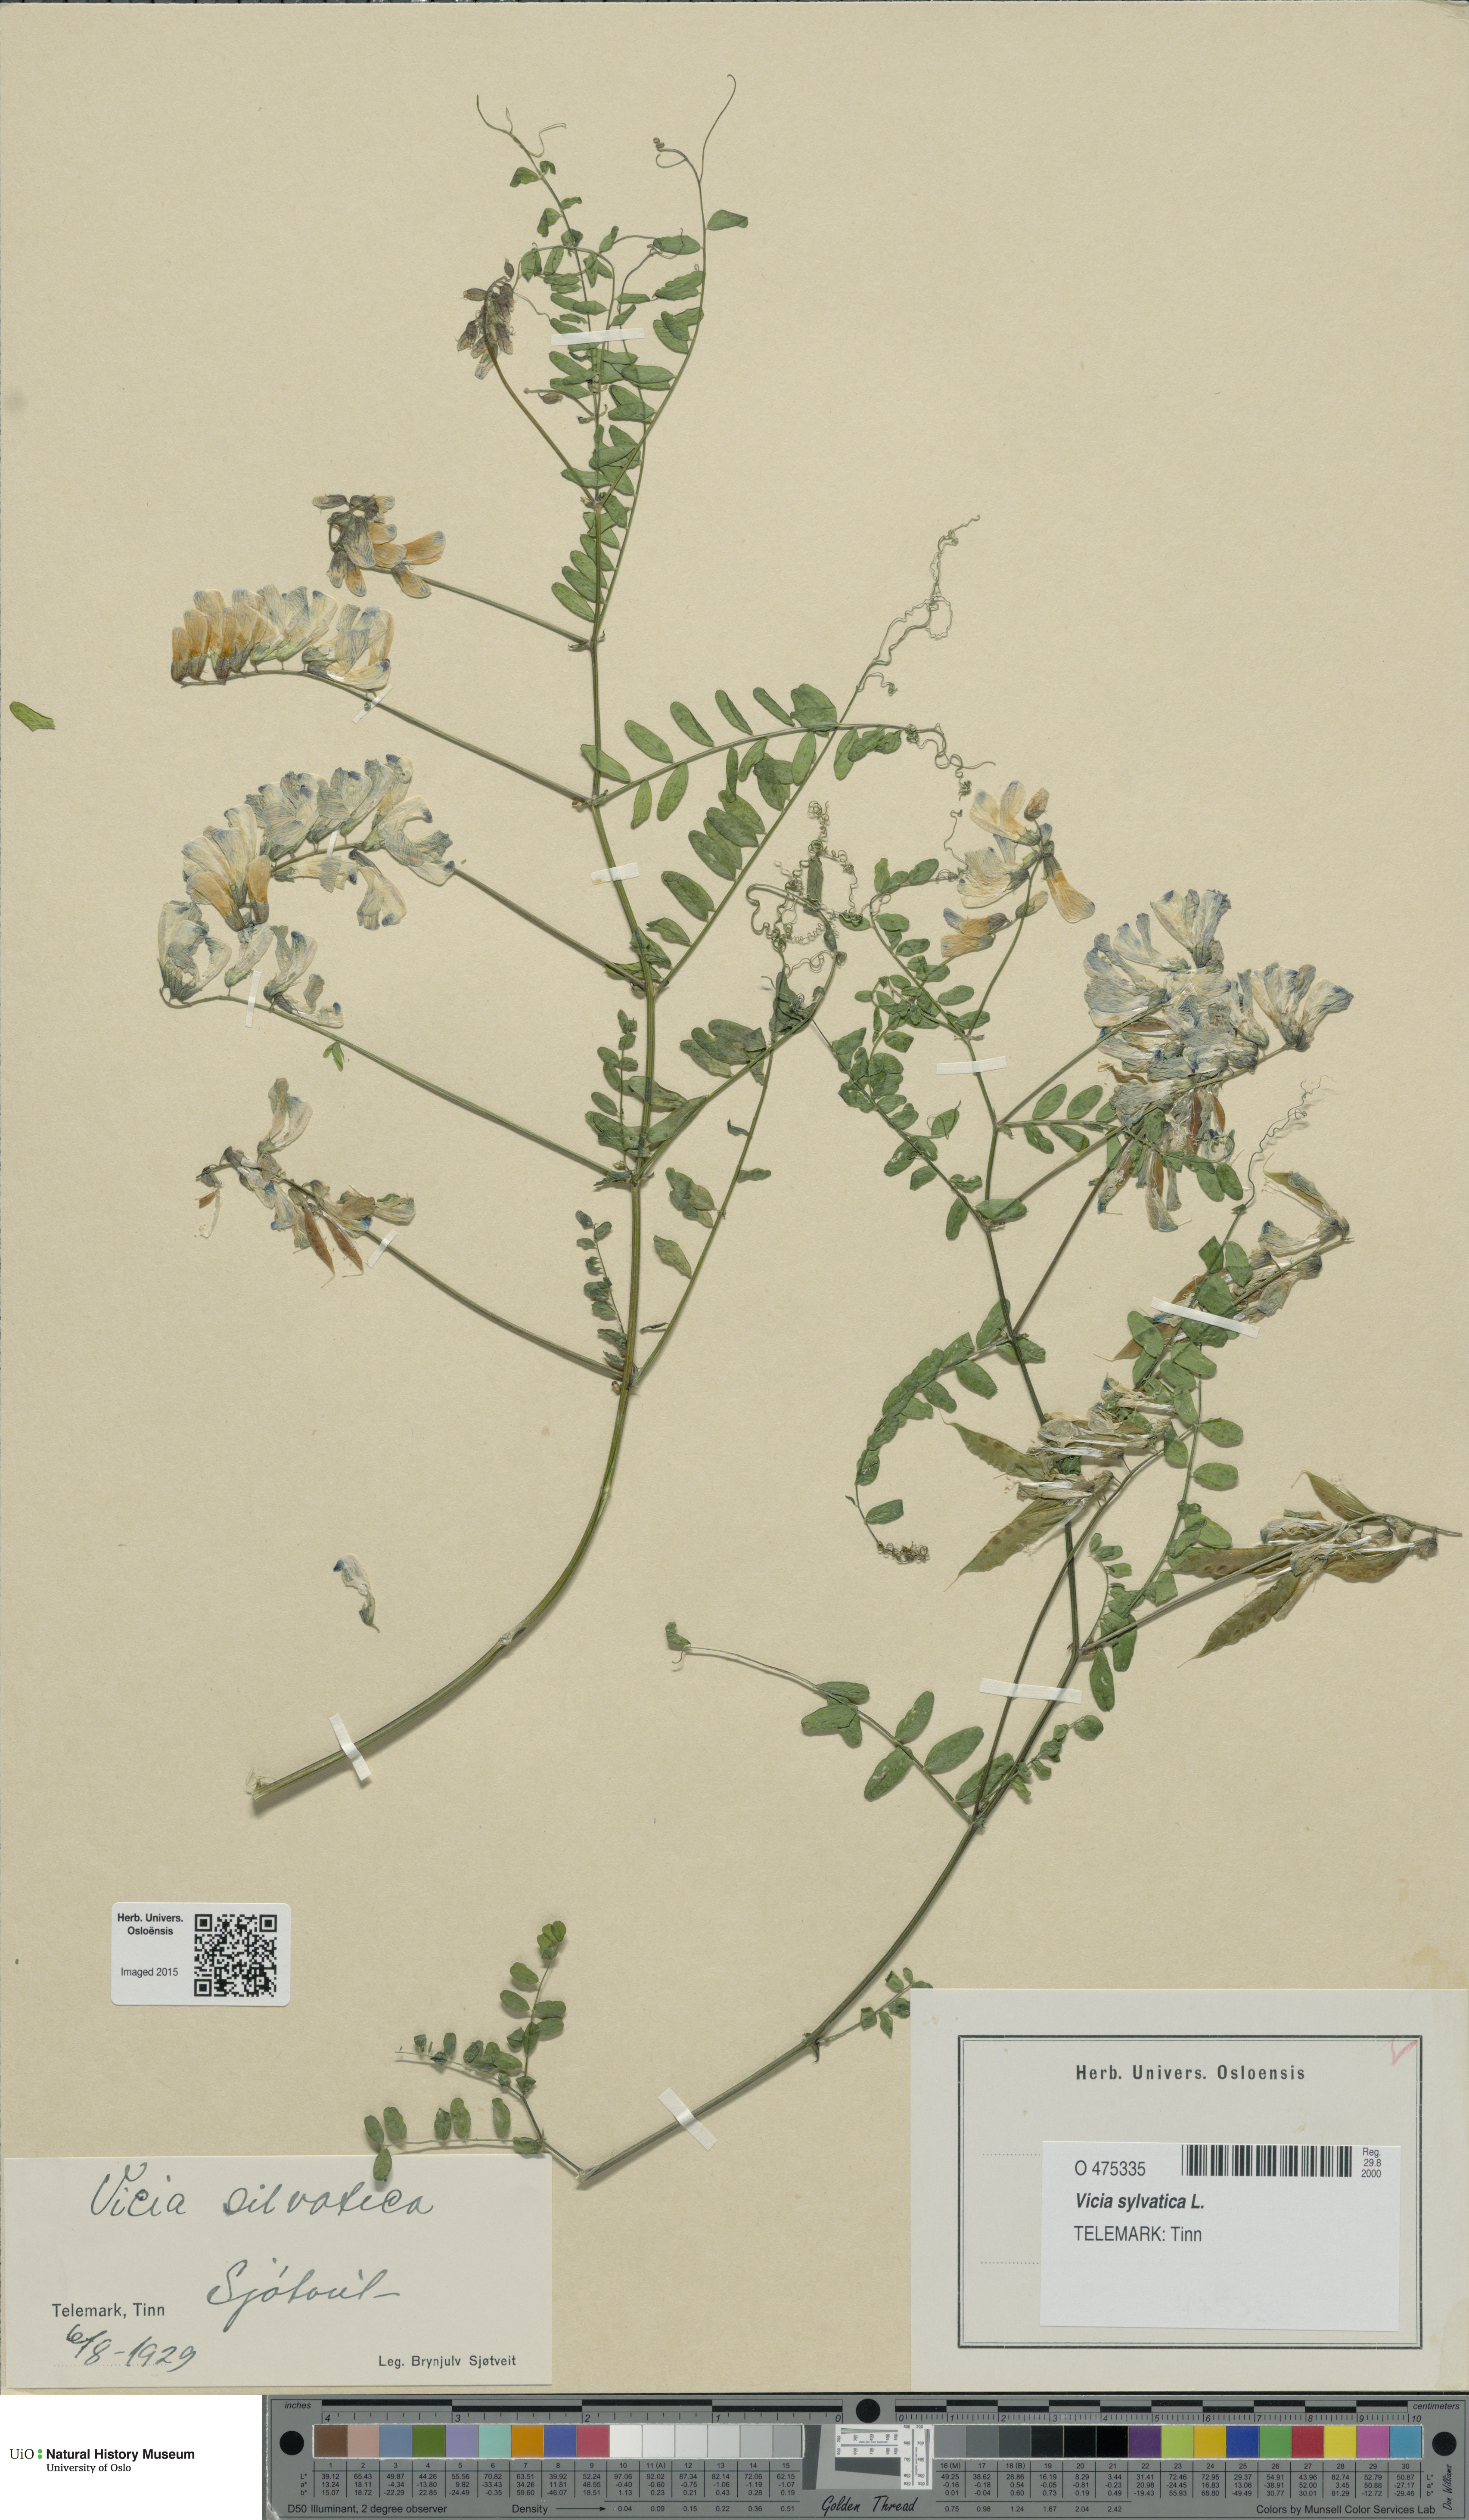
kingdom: Plantae
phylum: Tracheophyta
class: Magnoliopsida
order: Fabales
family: Fabaceae
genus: Vicia
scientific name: Vicia sylvatica
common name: Wood vetch
